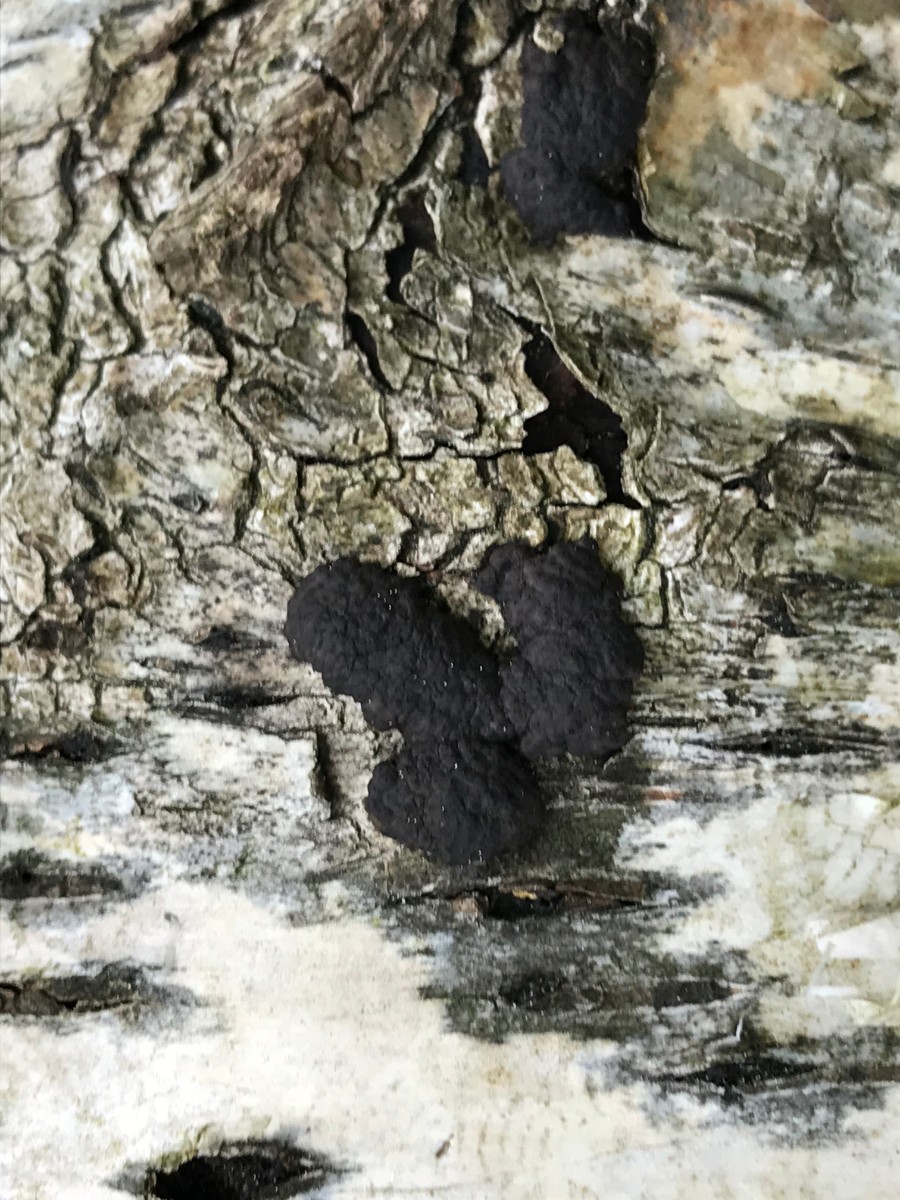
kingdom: Fungi
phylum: Ascomycota
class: Sordariomycetes
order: Xylariales
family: Hypoxylaceae
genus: Jackrogersella
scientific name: Jackrogersella multiformis
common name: foranderlig kulbær
